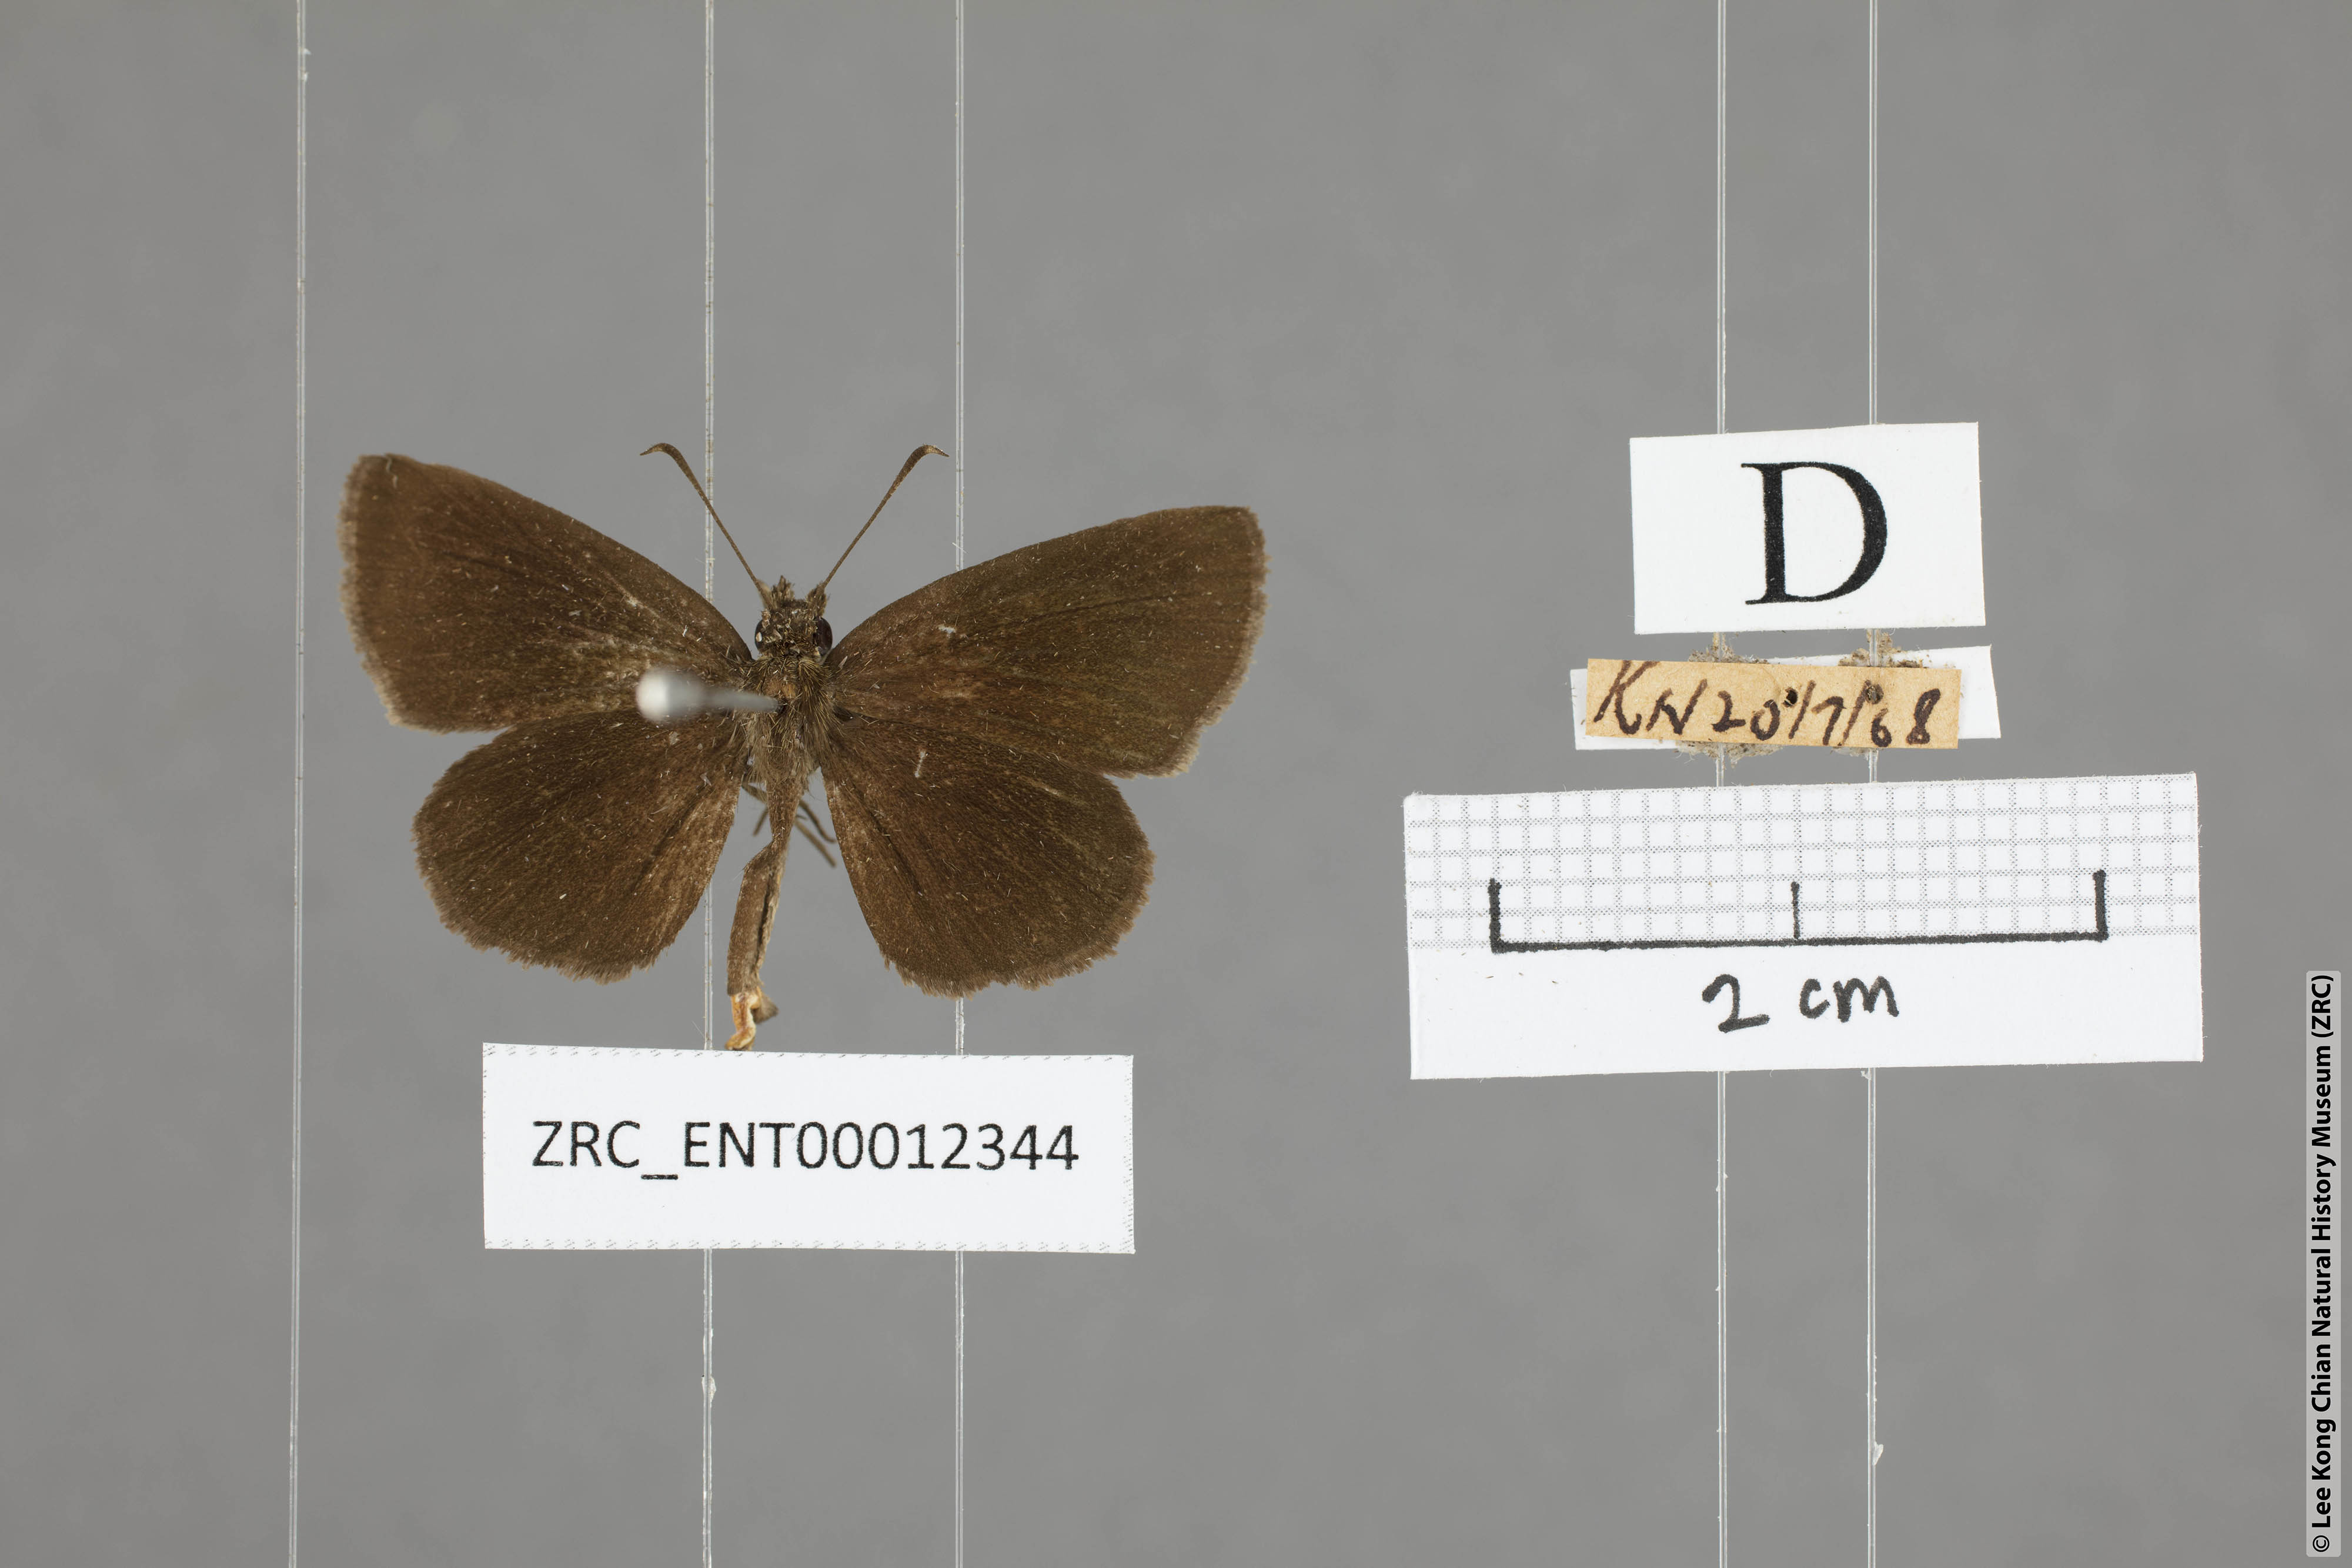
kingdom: Animalia
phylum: Arthropoda
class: Insecta
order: Lepidoptera
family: Hesperiidae
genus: Astictopterus
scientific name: Astictopterus jama
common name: Forest hopper
